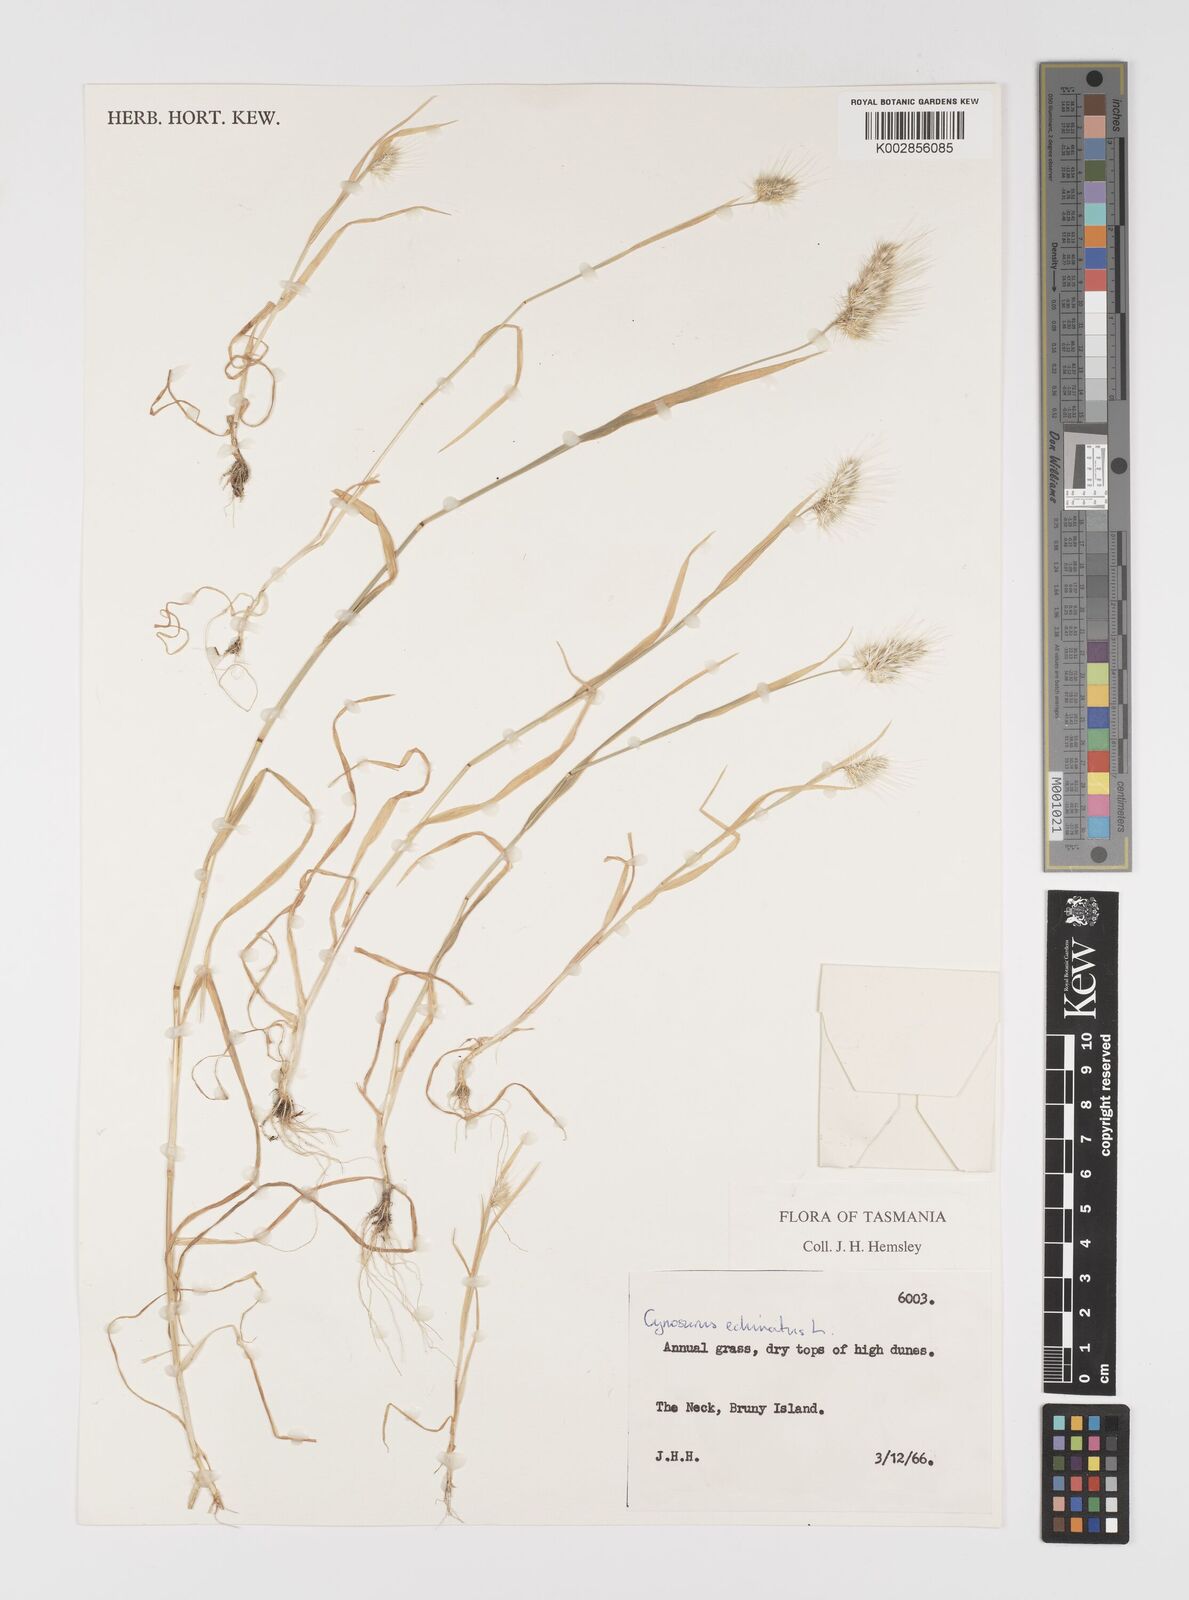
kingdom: Plantae
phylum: Tracheophyta
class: Liliopsida
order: Poales
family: Poaceae
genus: Cynosurus
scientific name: Cynosurus echinatus
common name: Rough dog's-tail
